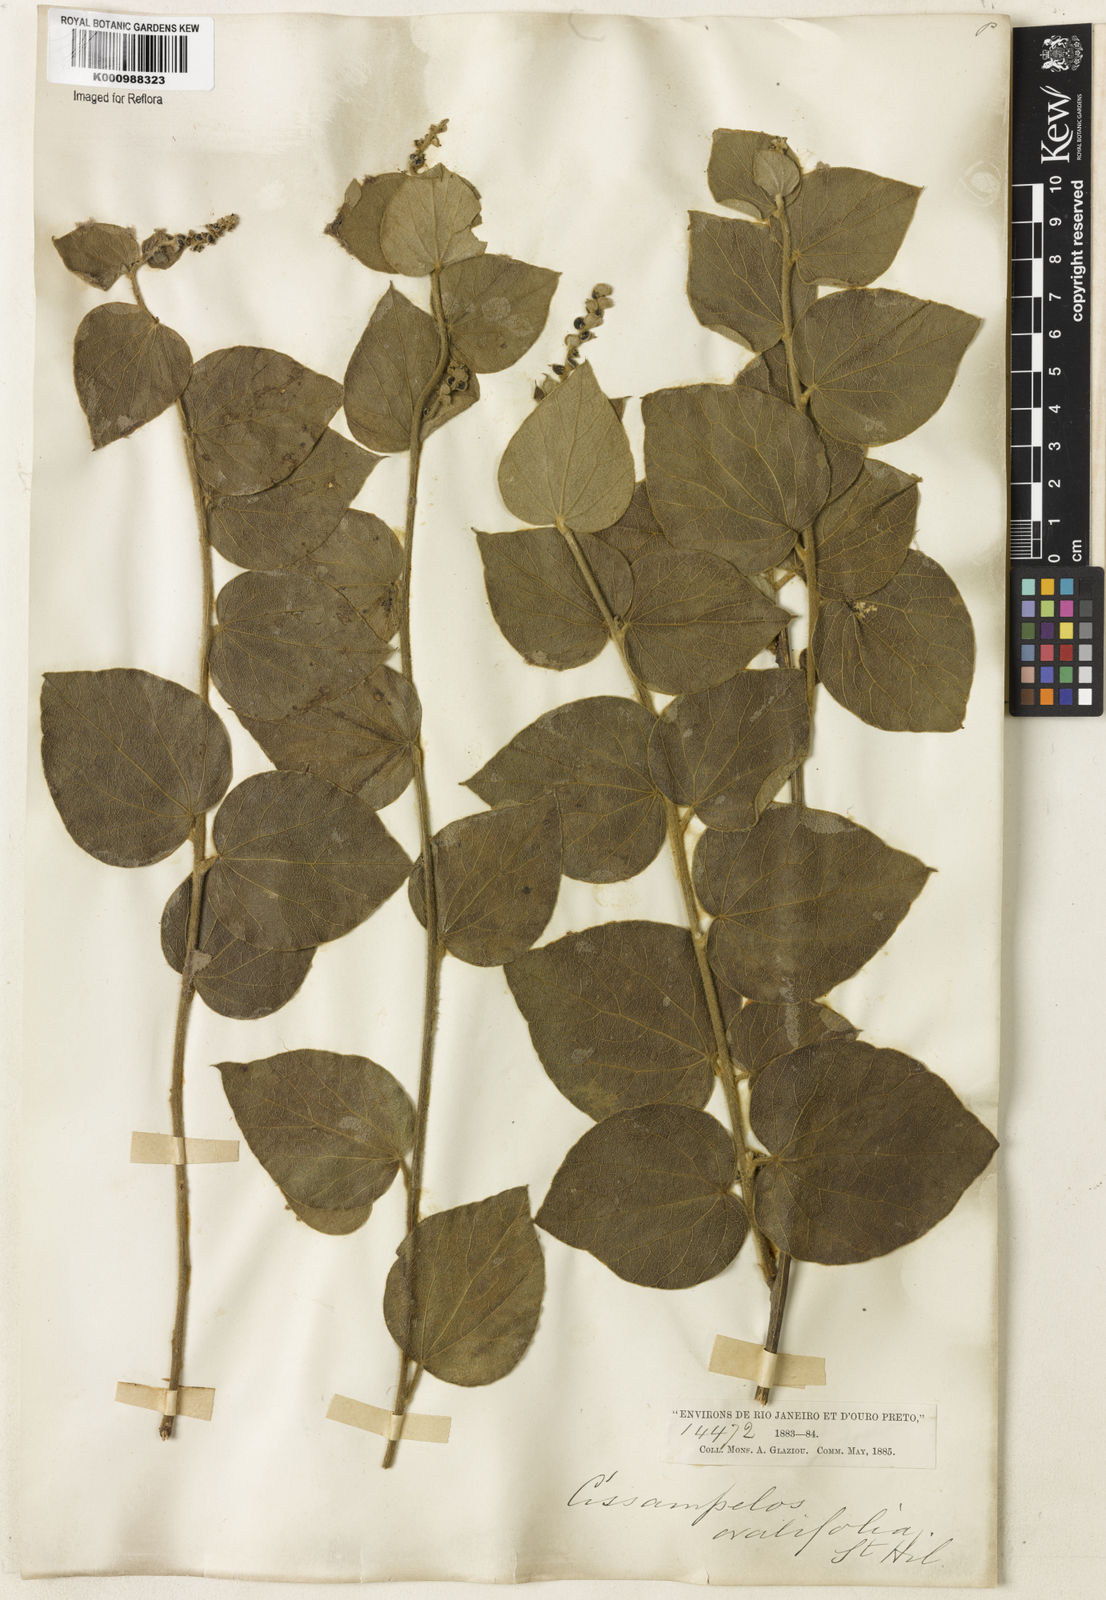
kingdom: Plantae
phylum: Tracheophyta
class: Magnoliopsida
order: Ranunculales
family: Menispermaceae
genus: Cissampelos
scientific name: Cissampelos ovalifolia
